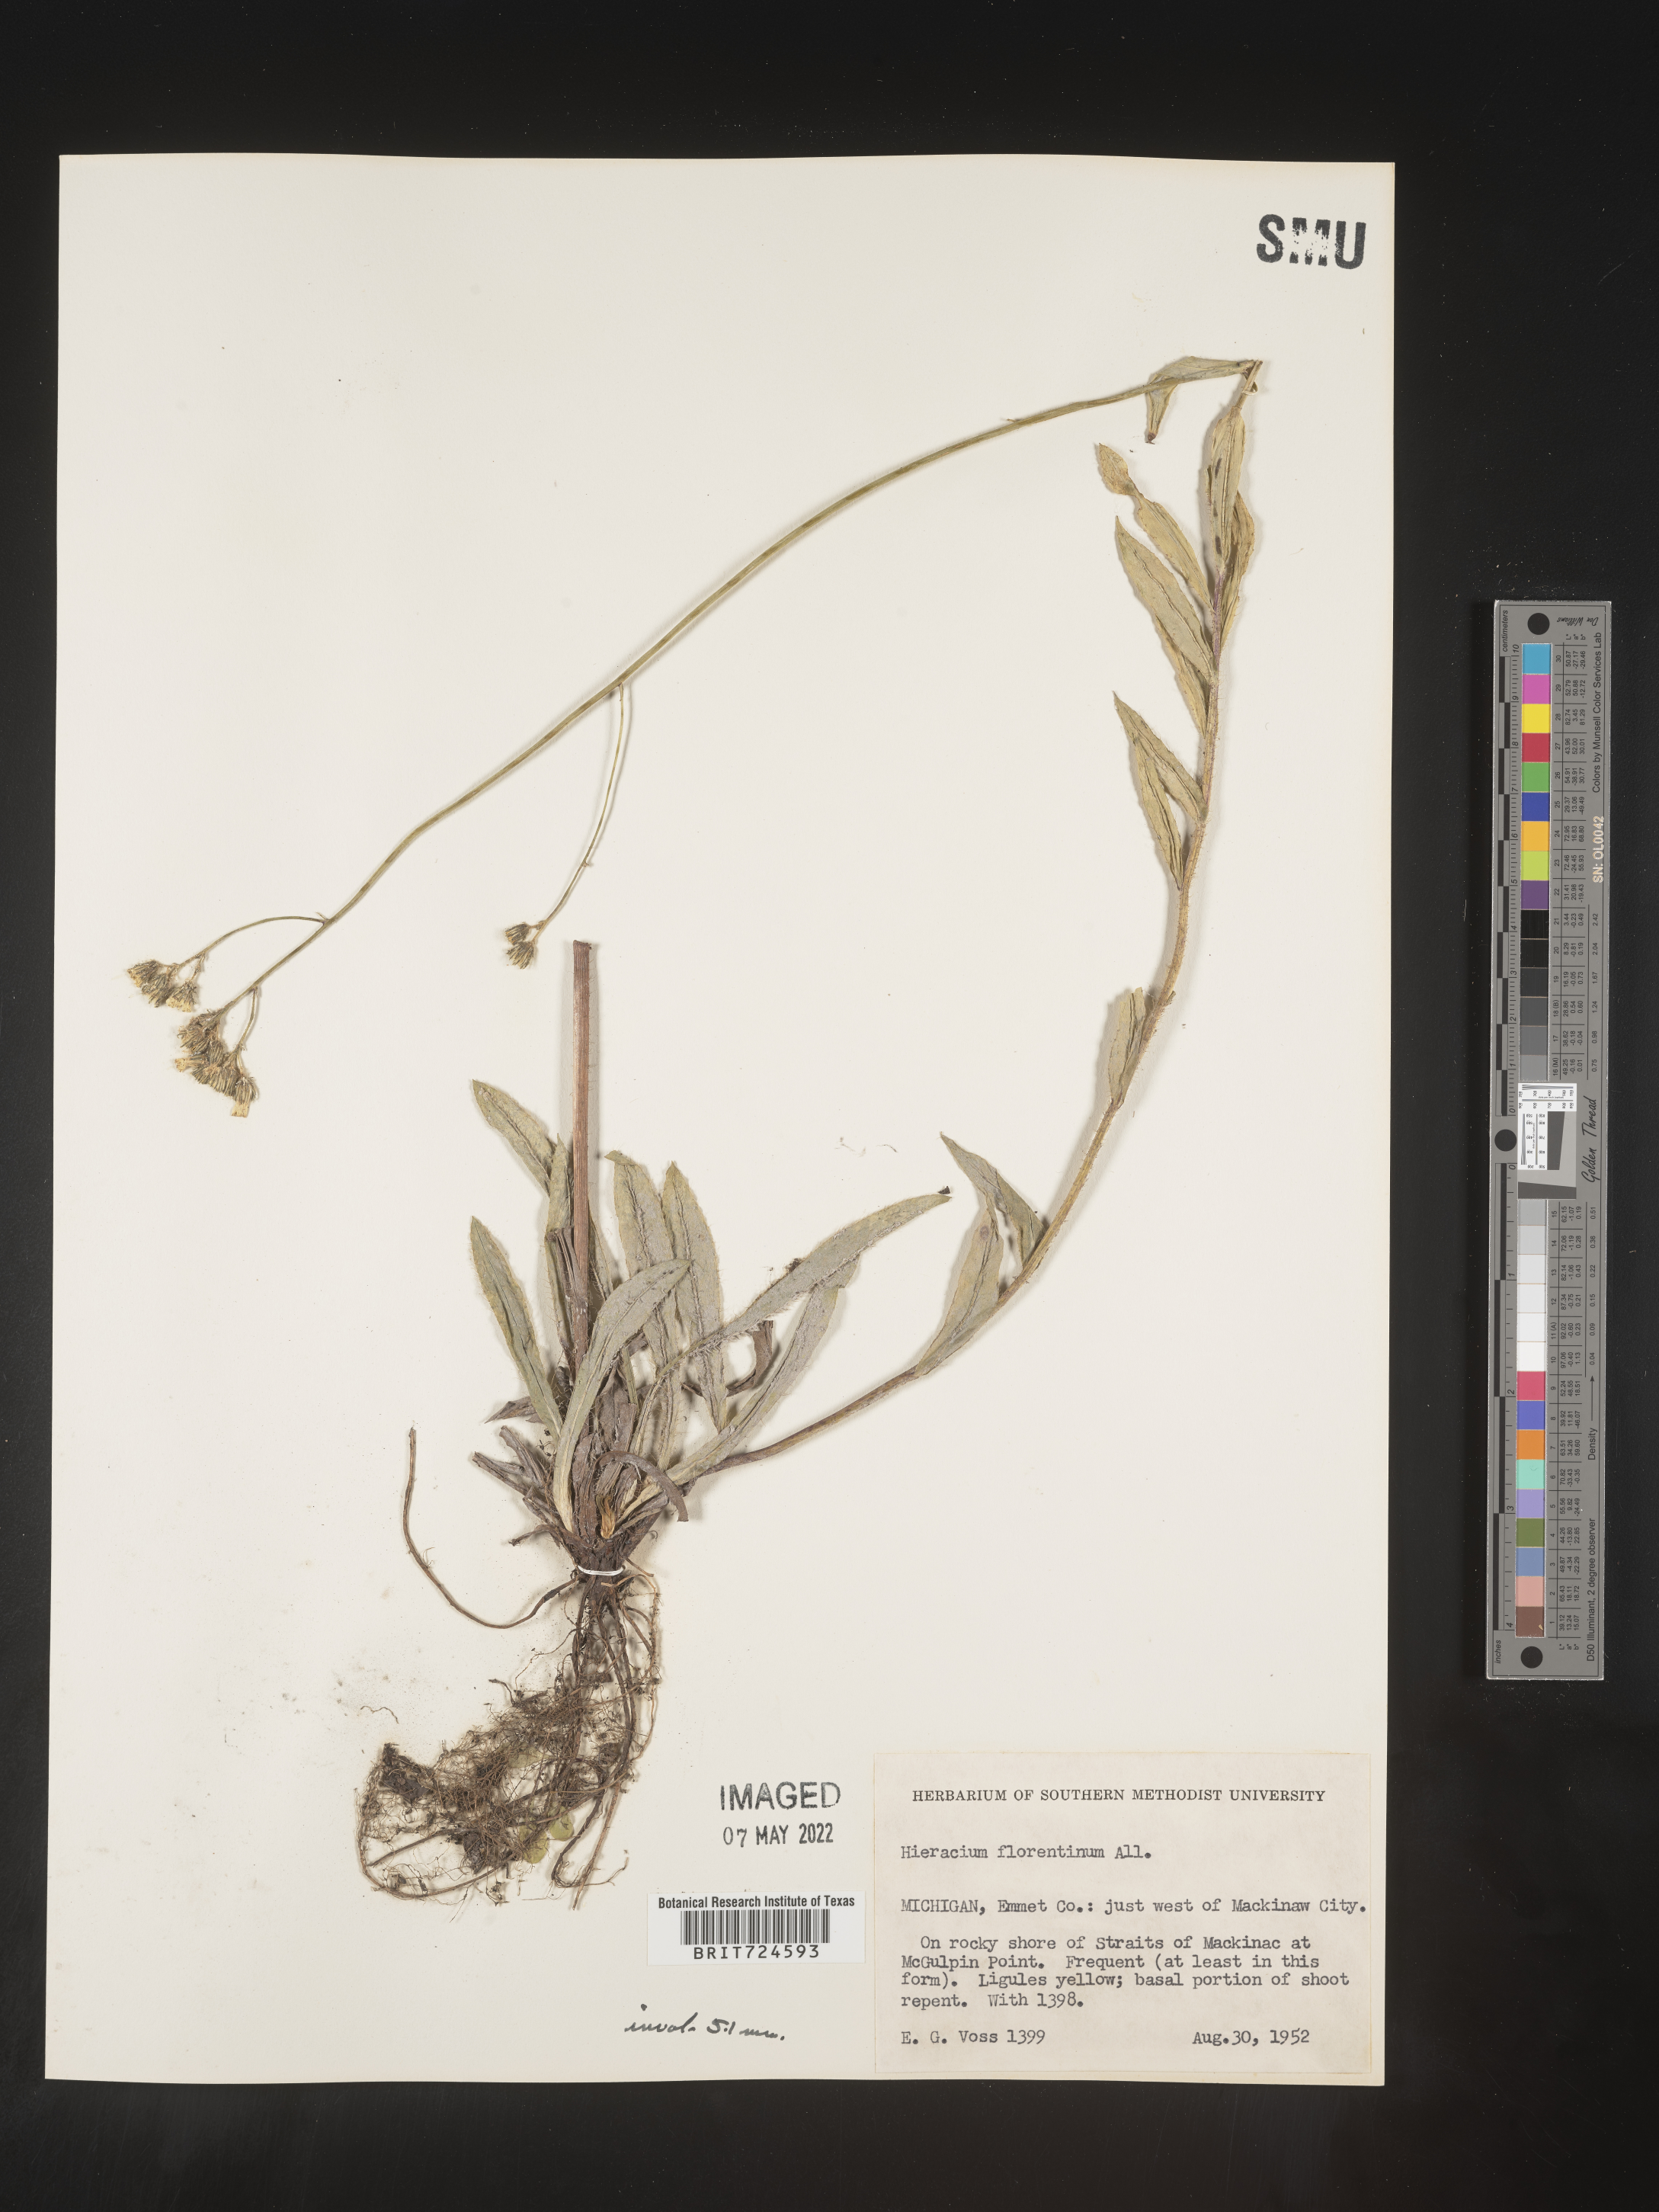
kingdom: Plantae
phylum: Tracheophyta
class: Magnoliopsida
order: Asterales
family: Asteraceae
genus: Pilosella
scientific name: Pilosella piloselloides
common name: Glaucous king-devil
